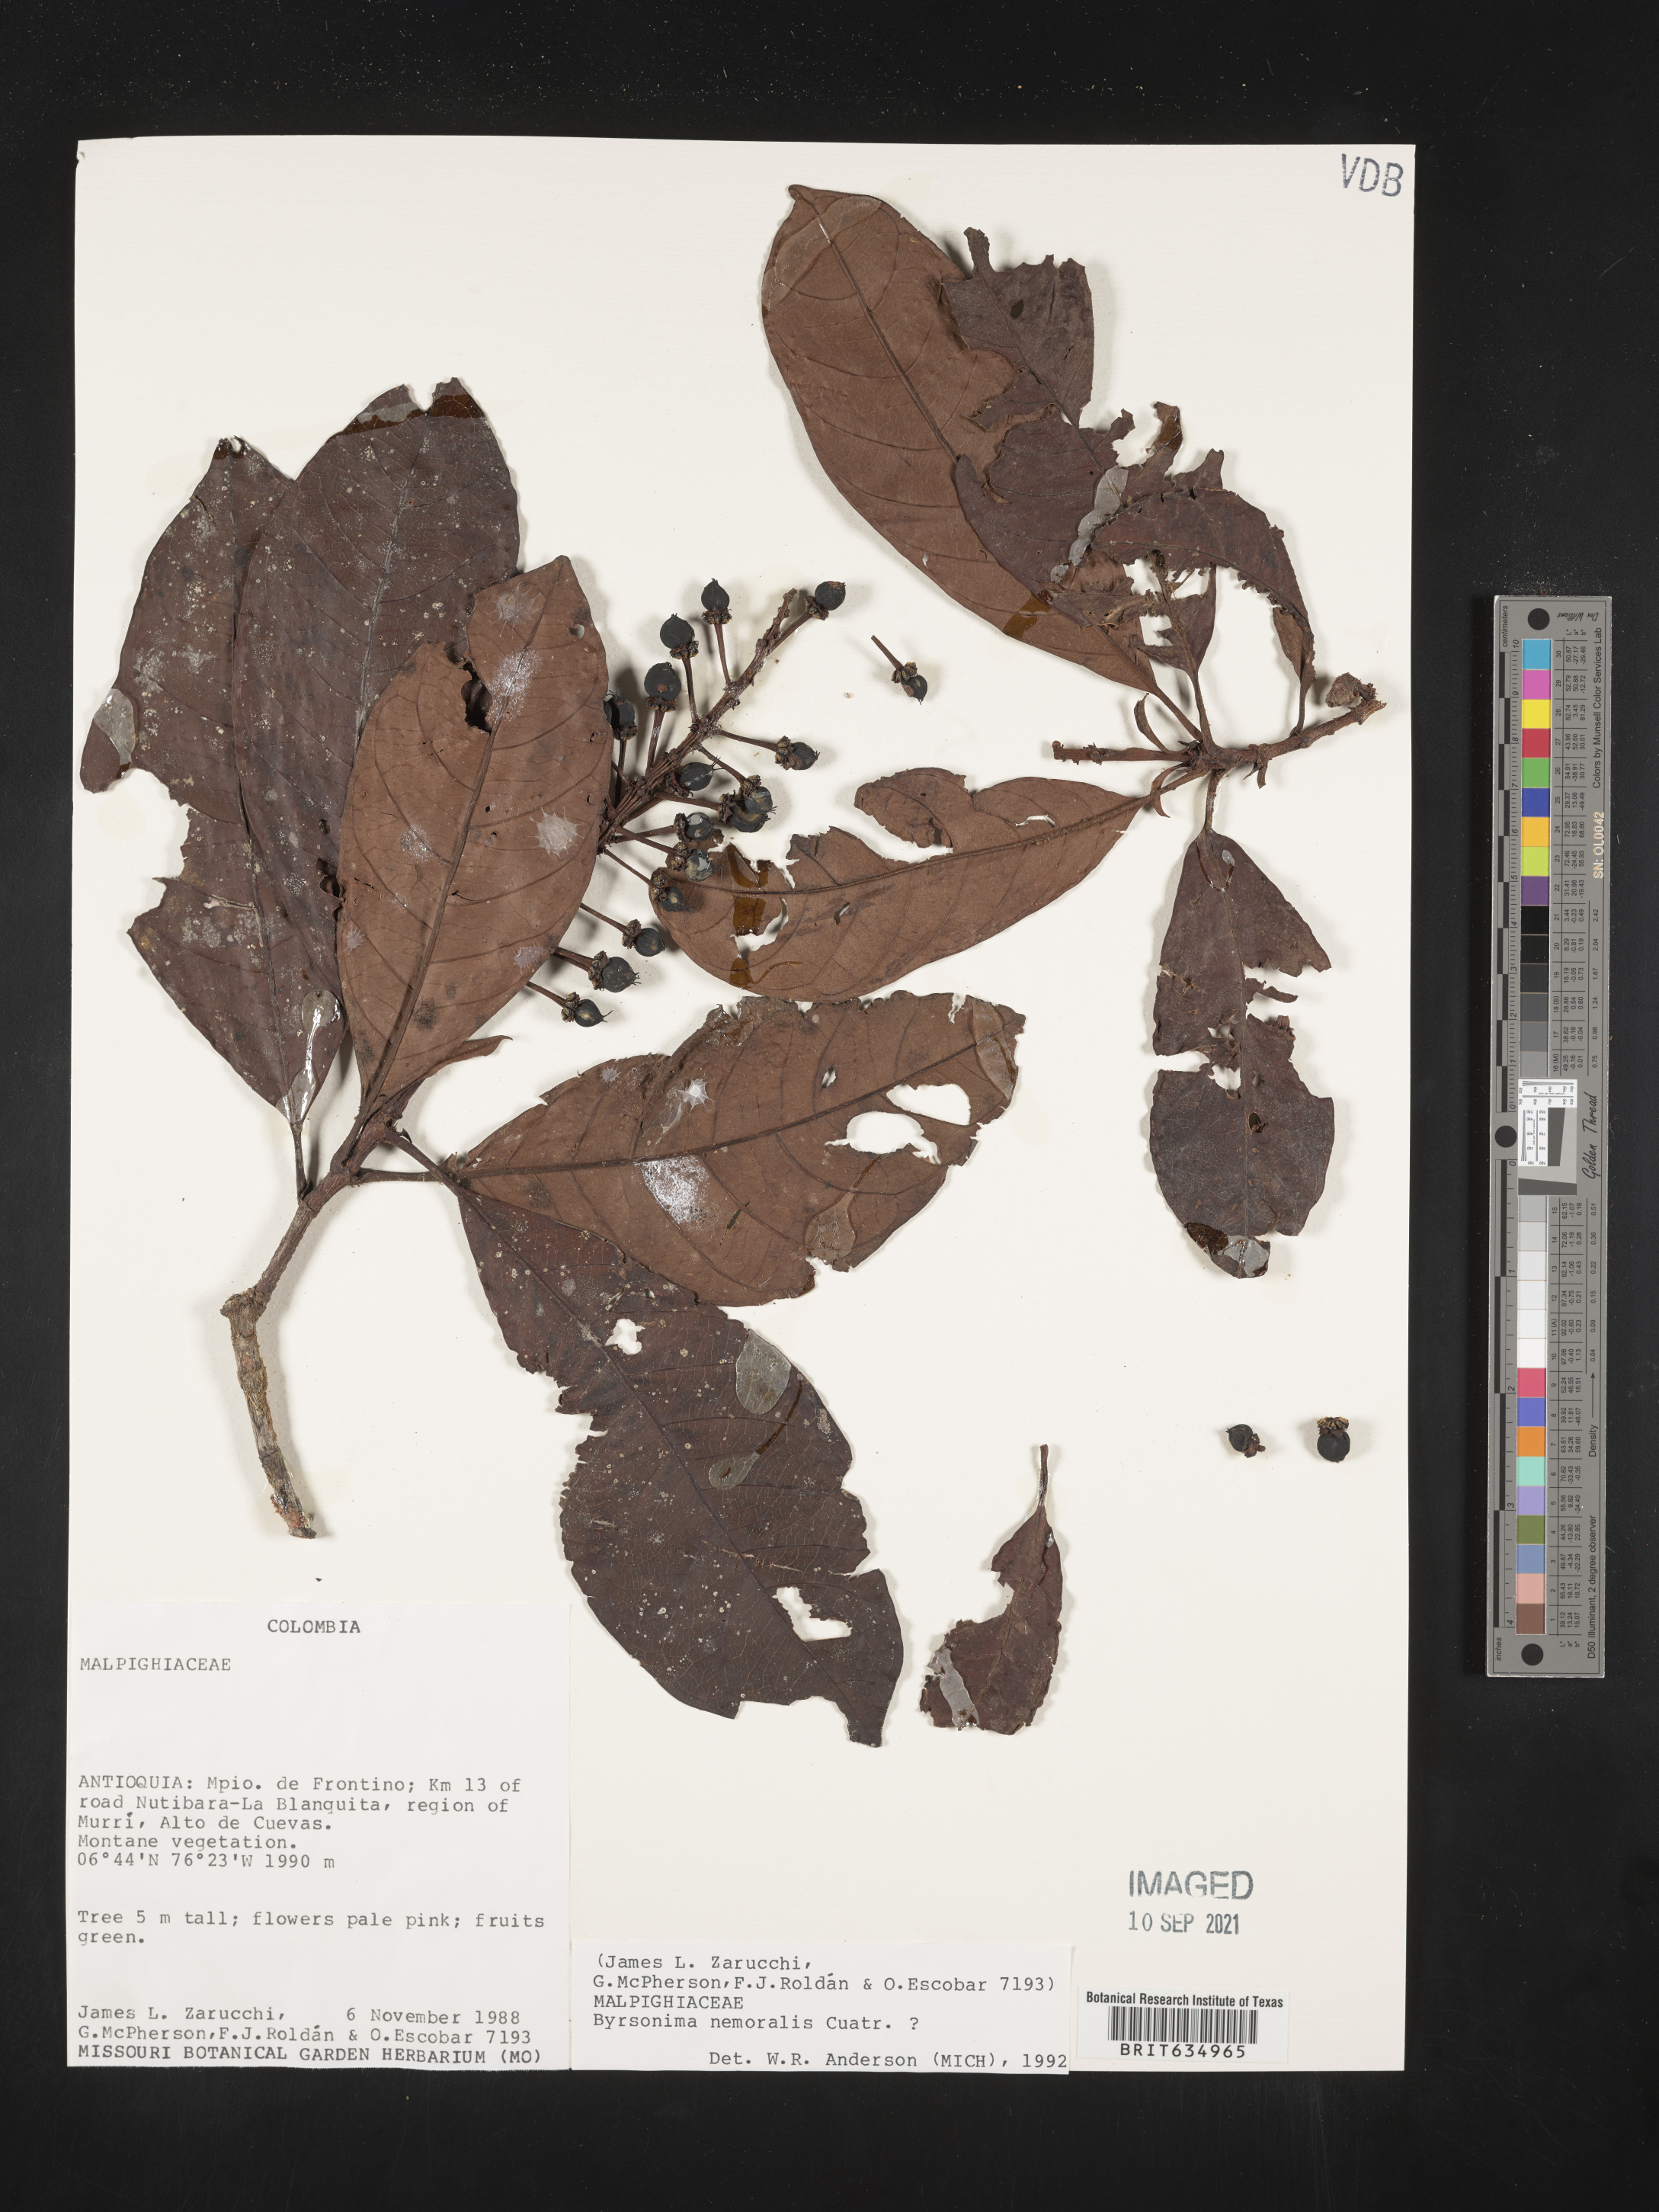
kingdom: Plantae
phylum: Tracheophyta
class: Magnoliopsida
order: Malpighiales
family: Malpighiaceae
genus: Byrsonima
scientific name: Byrsonima
